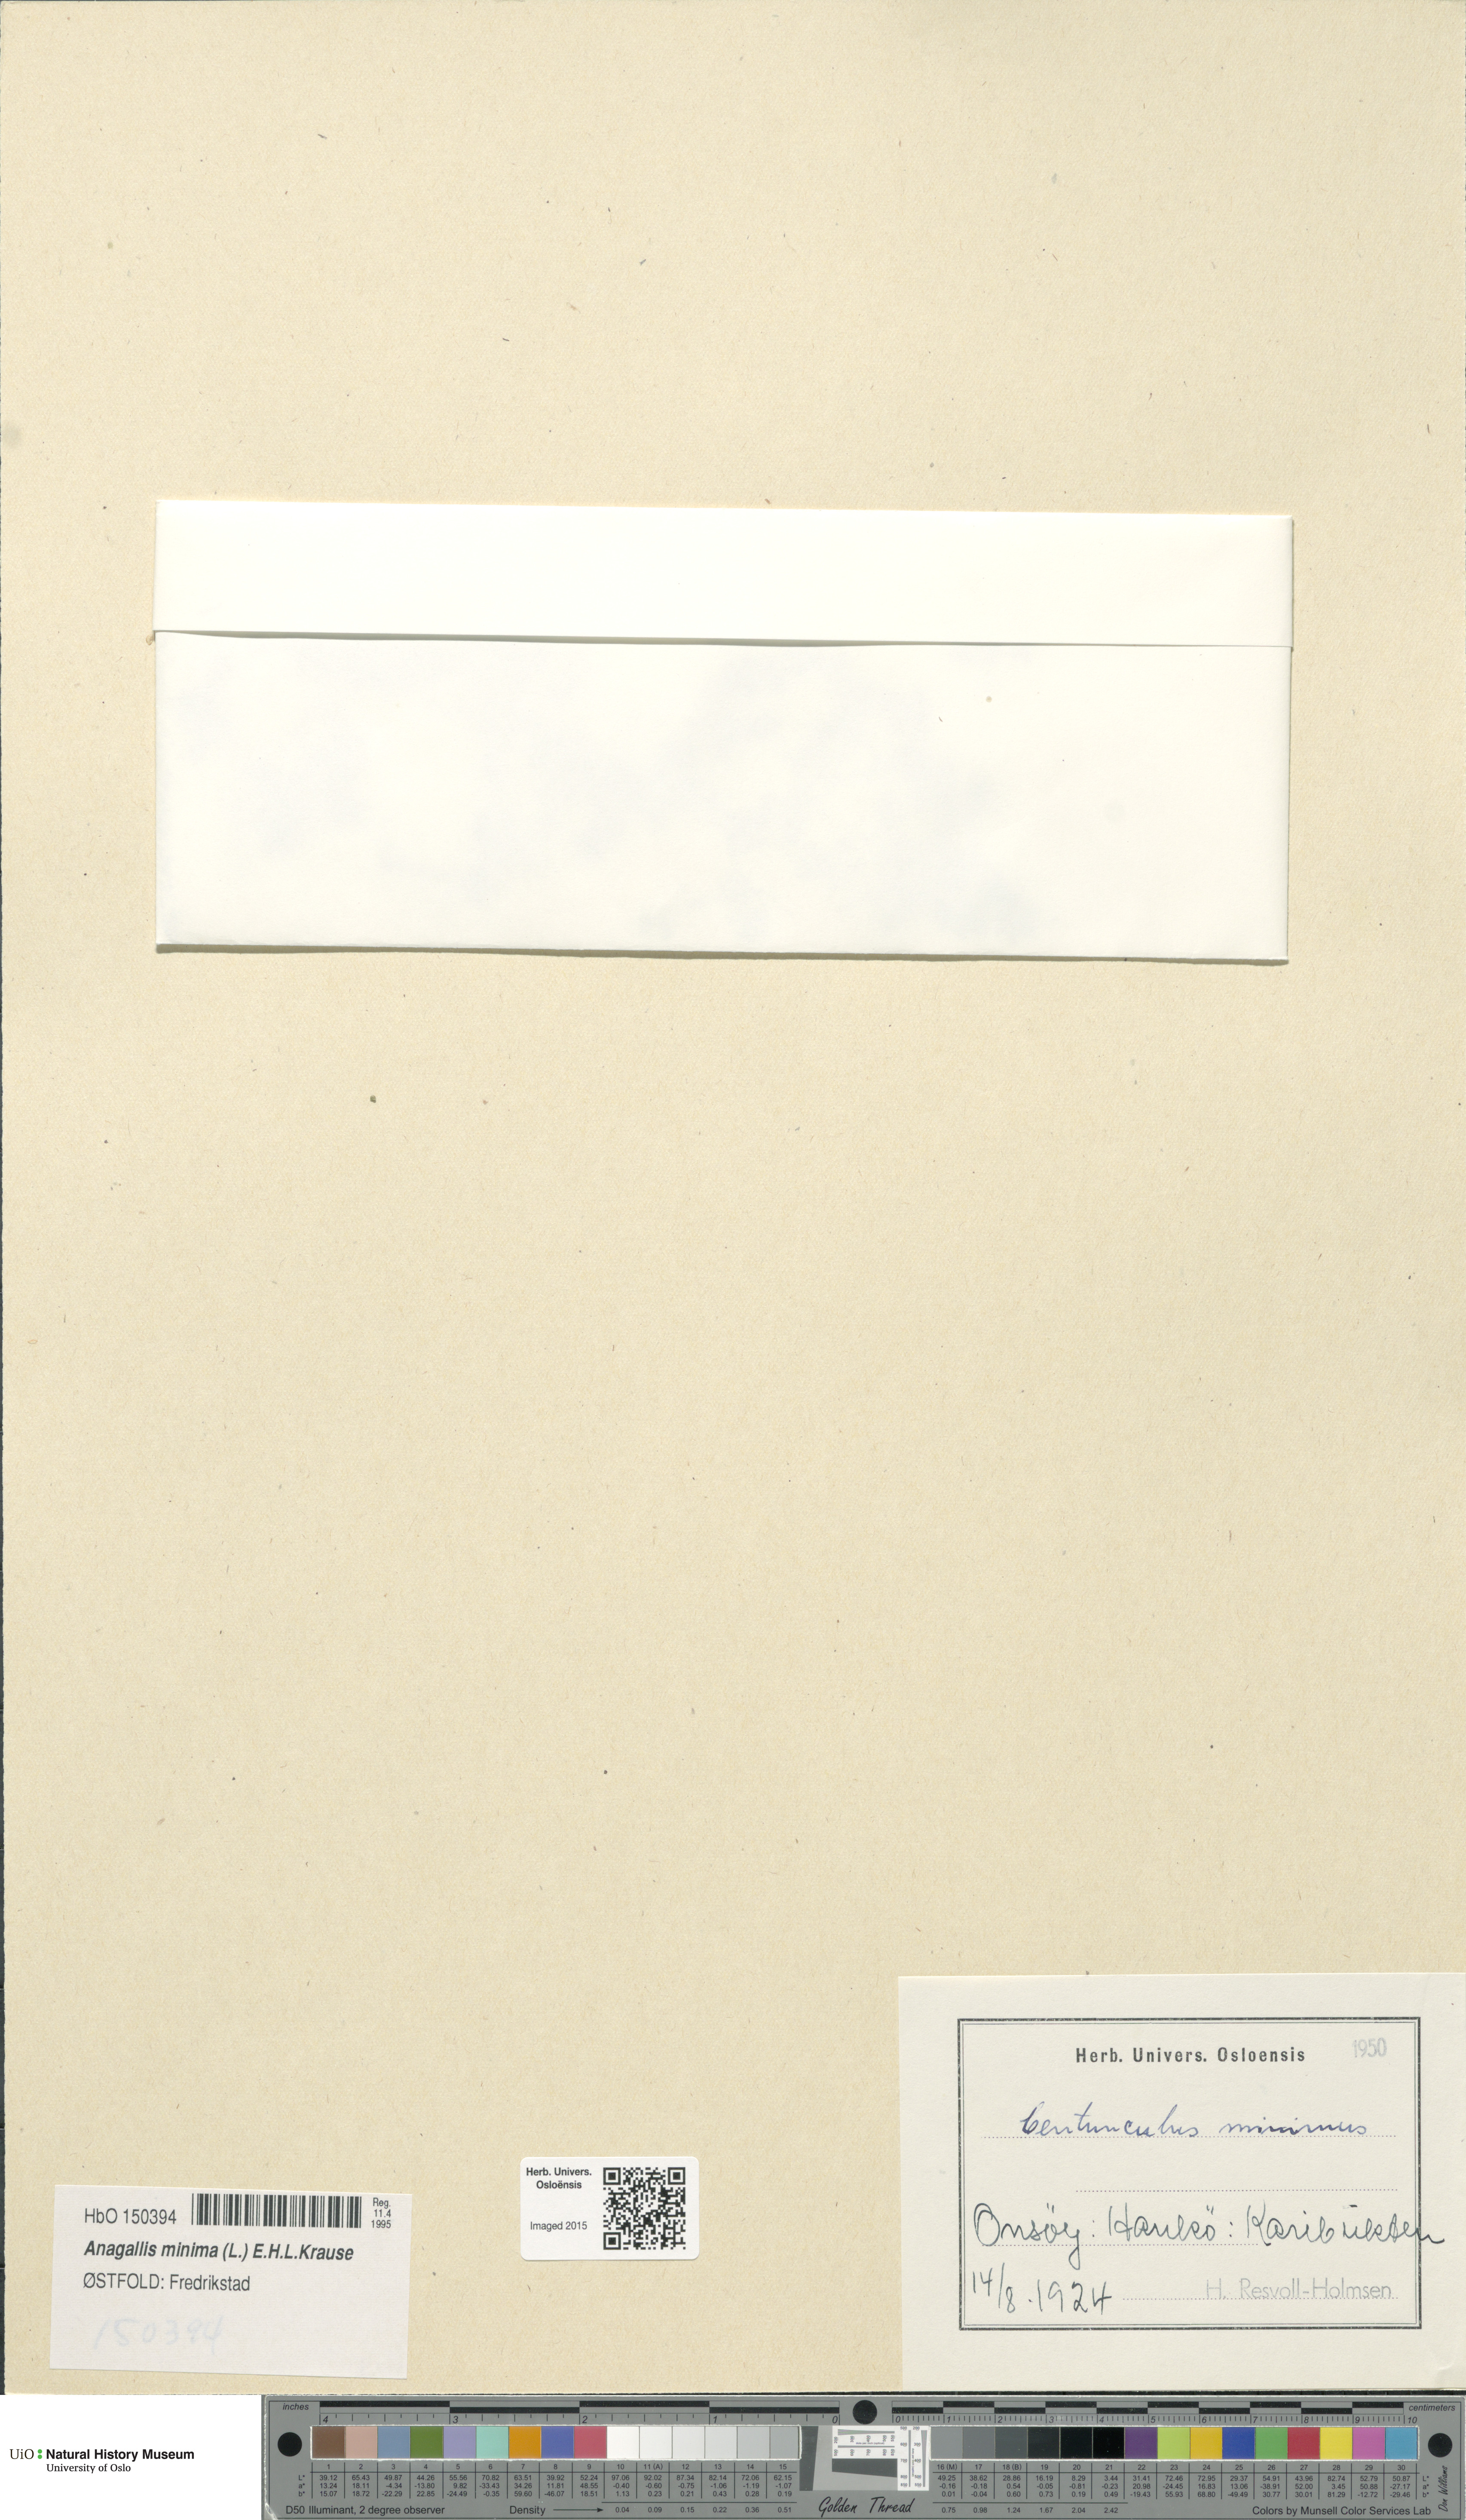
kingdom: Plantae
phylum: Tracheophyta
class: Magnoliopsida
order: Ericales
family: Primulaceae
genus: Lysimachia
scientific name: Lysimachia minima
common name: Chaffweed
